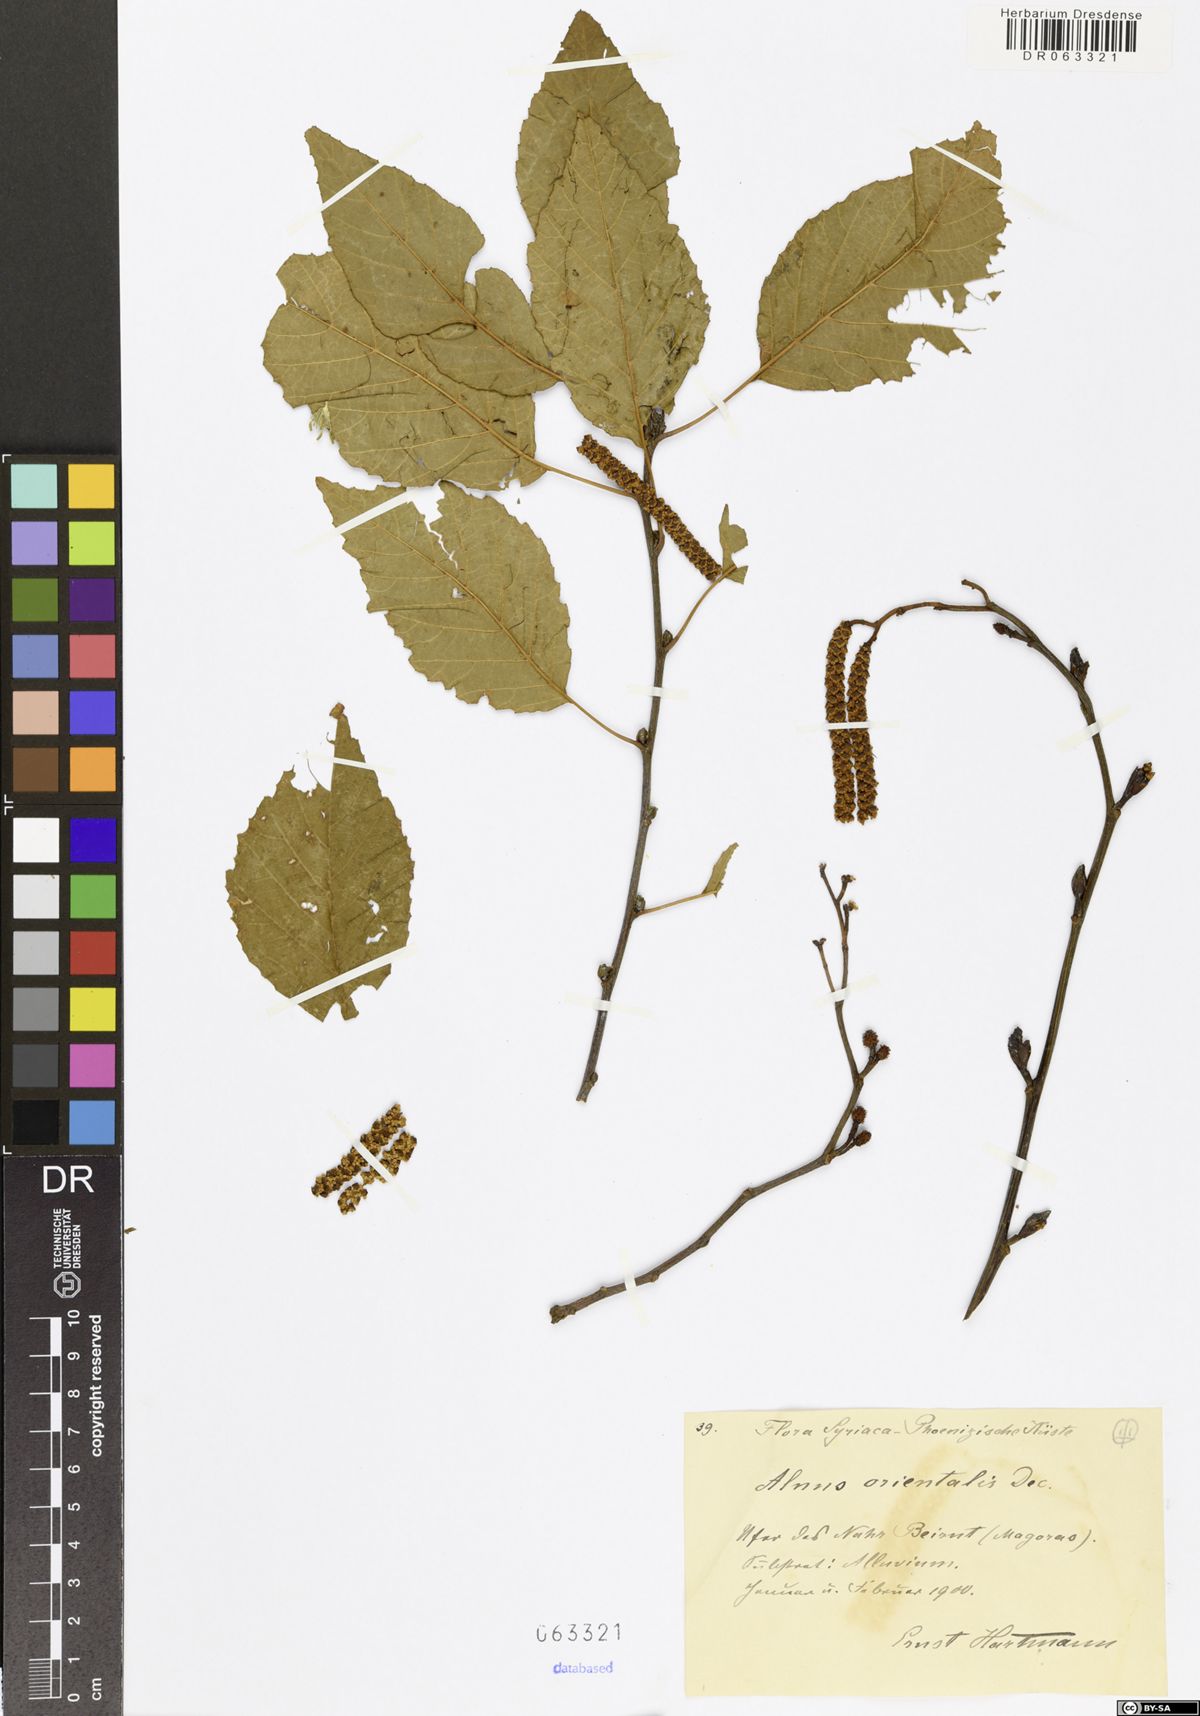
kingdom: Plantae
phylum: Tracheophyta
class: Magnoliopsida
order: Fagales
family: Betulaceae
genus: Alnus
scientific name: Alnus orientalis
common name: Oriental alder
